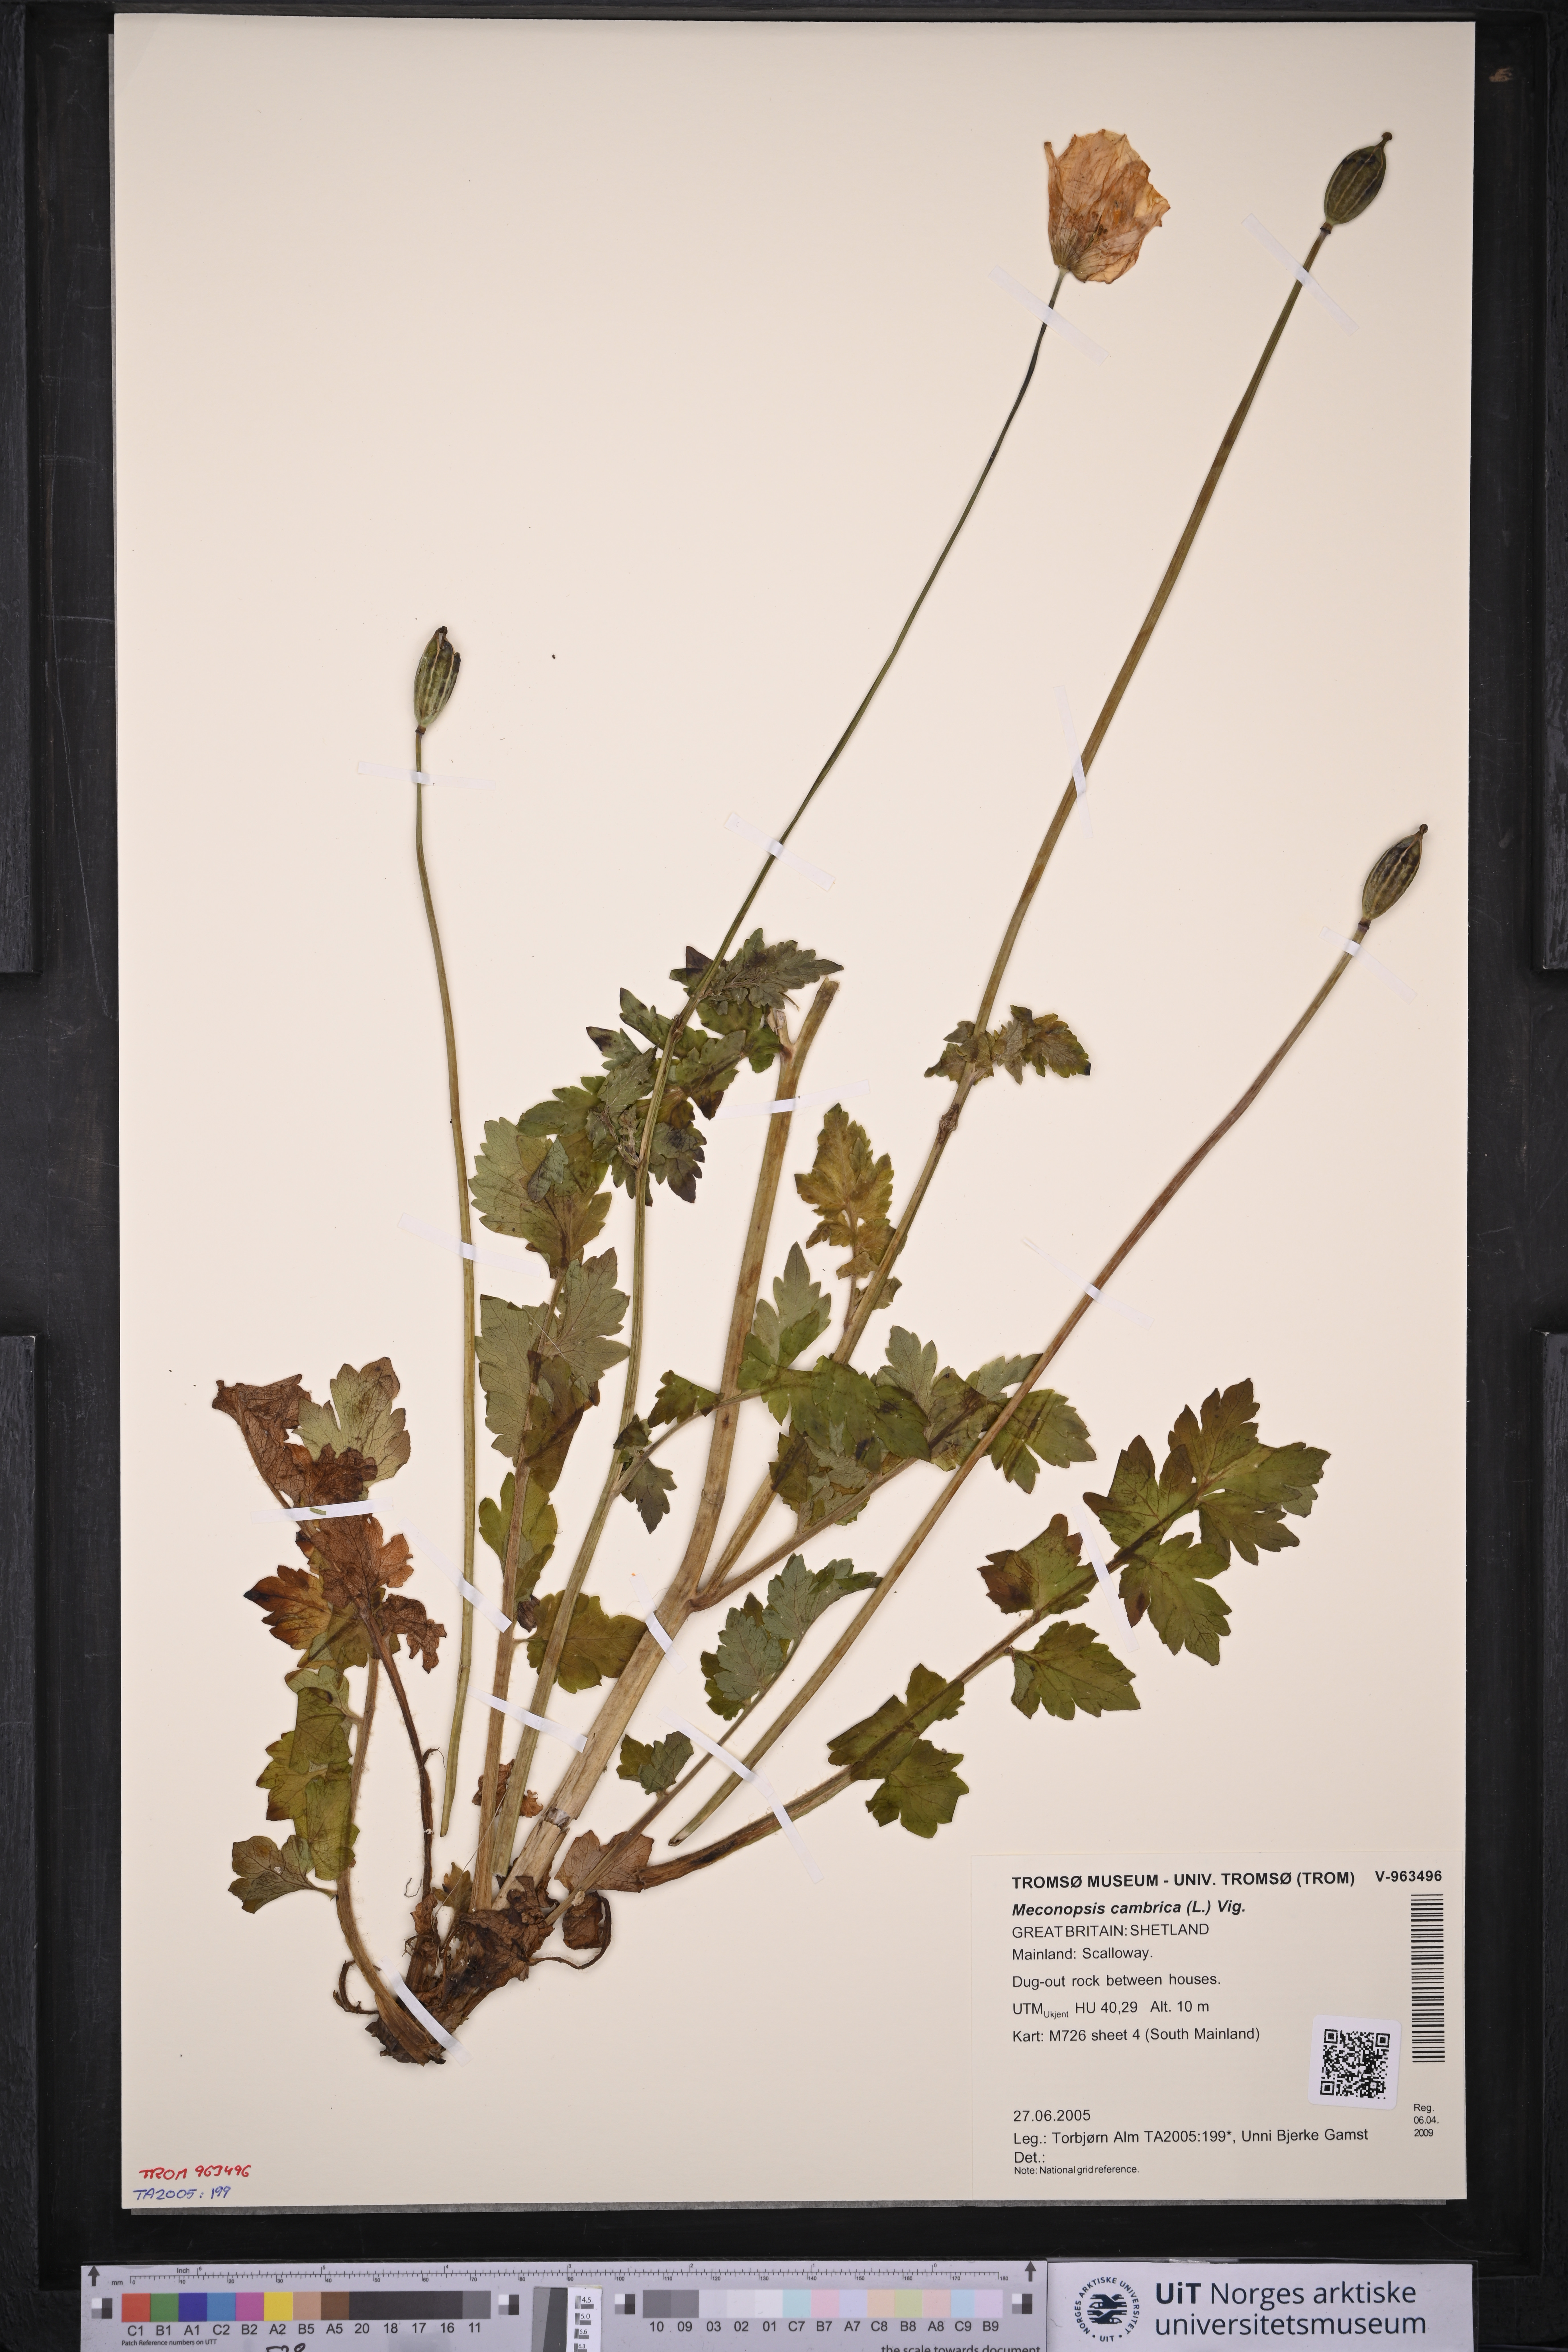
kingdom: Plantae
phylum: Tracheophyta
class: Magnoliopsida
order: Ranunculales
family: Papaveraceae
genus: Papaver
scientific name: Papaver cambricum
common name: Poppy
